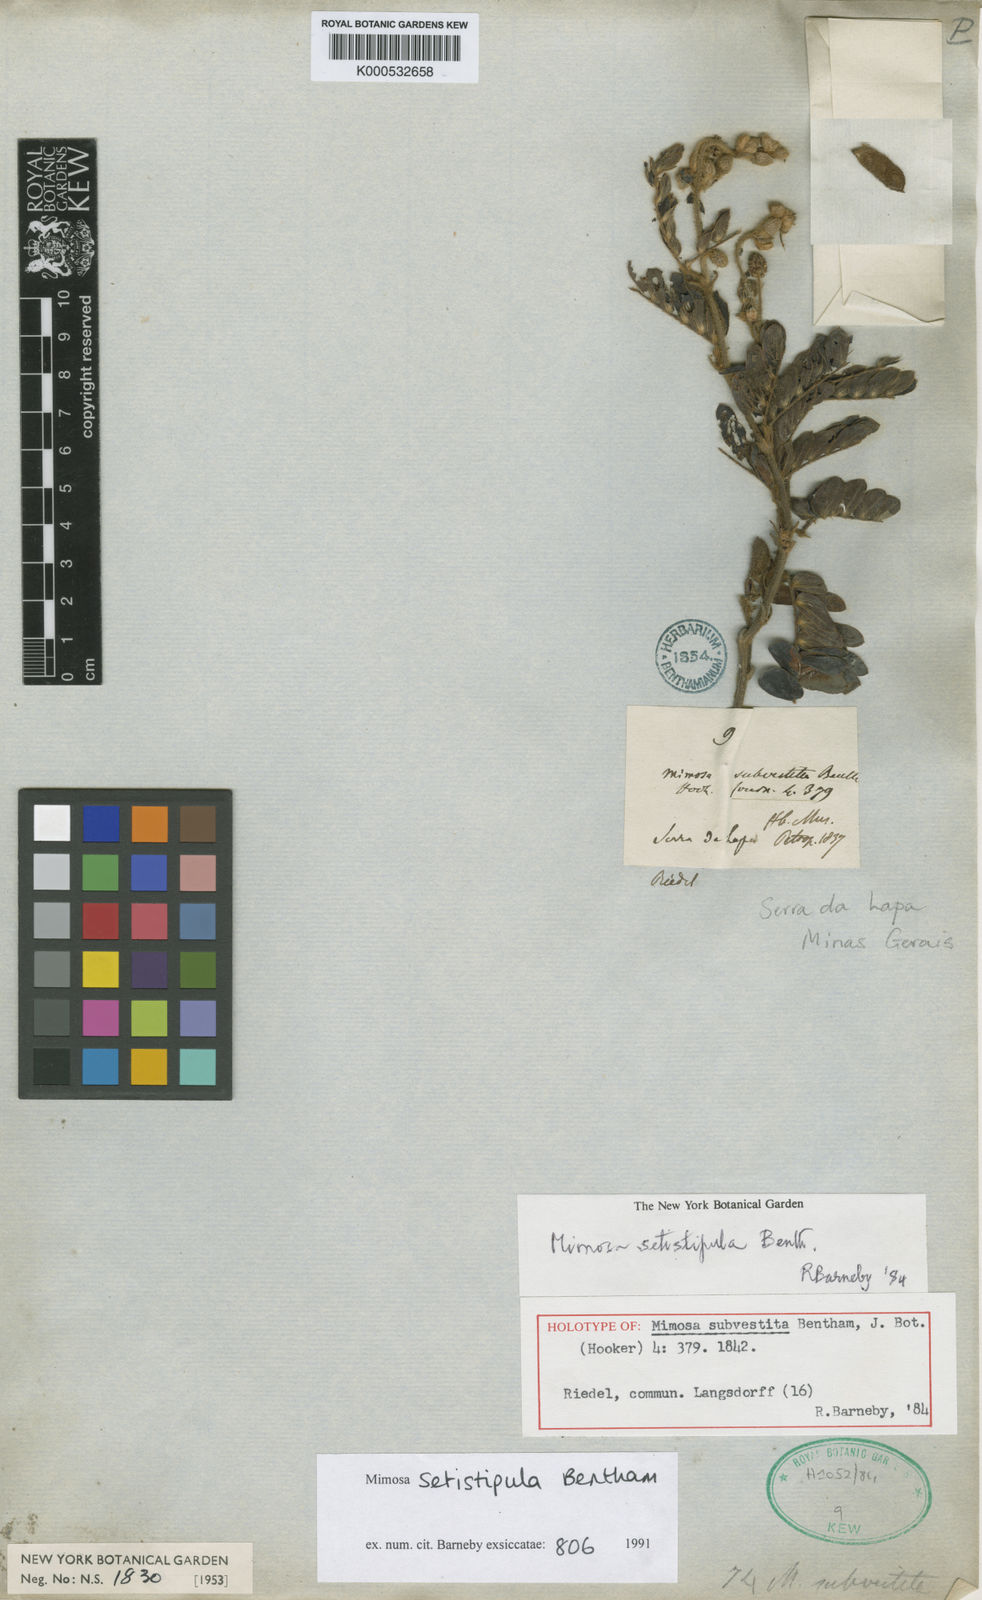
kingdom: Plantae
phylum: Tracheophyta
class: Magnoliopsida
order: Fabales
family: Fabaceae
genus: Mimosa
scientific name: Mimosa setistipula
